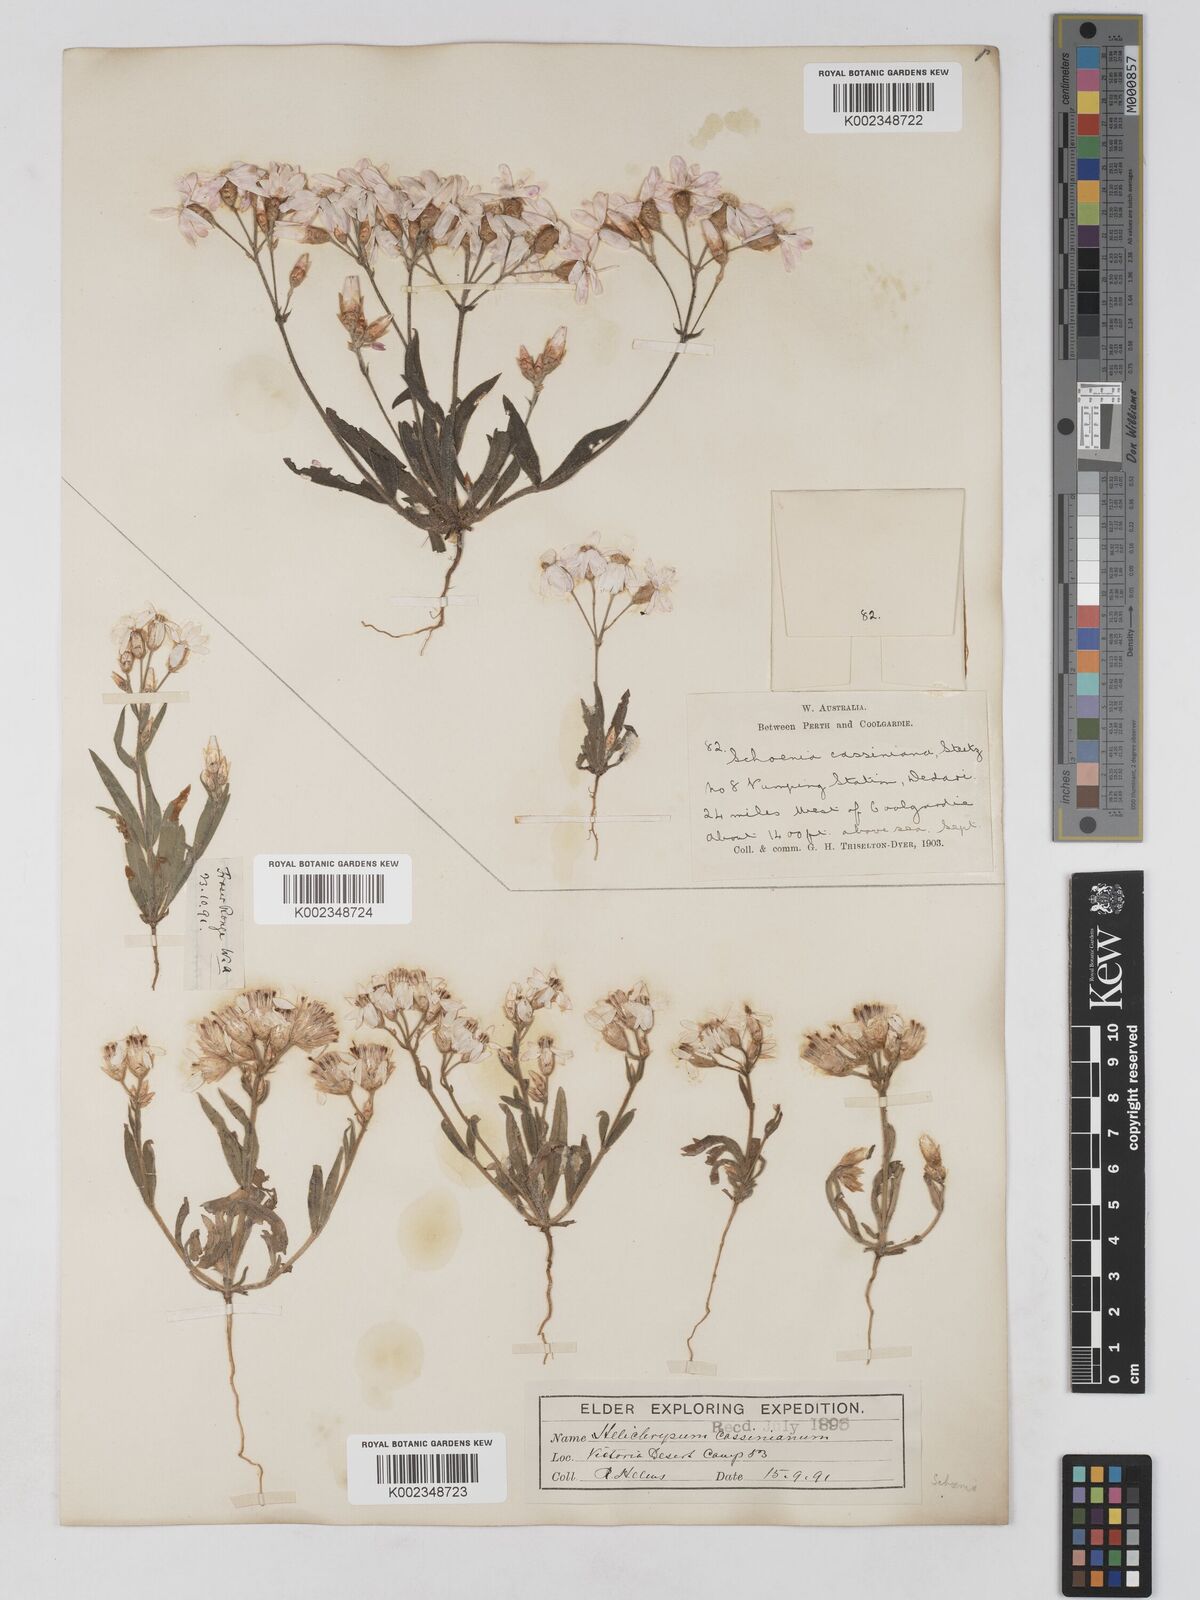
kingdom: Plantae
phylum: Tracheophyta
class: Magnoliopsida
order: Asterales
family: Asteraceae
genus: Schoenia
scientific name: Schoenia cassiniana
